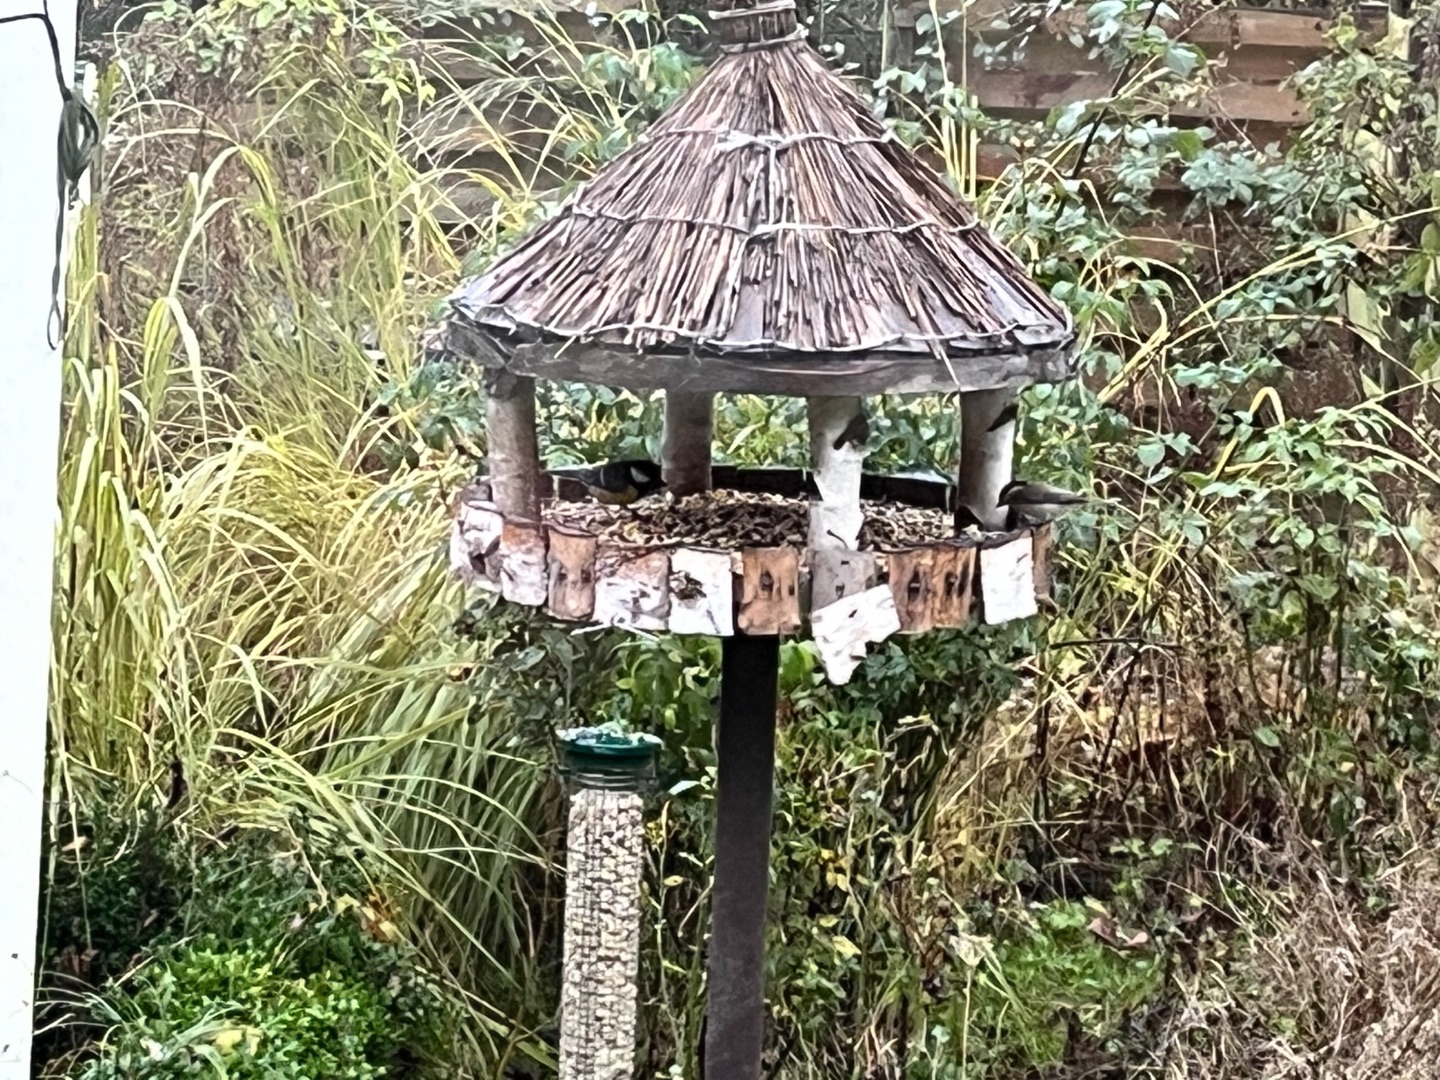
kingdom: Animalia
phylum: Chordata
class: Aves
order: Passeriformes
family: Paridae
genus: Poecile
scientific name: Poecile palustris
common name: Sumpmejse
